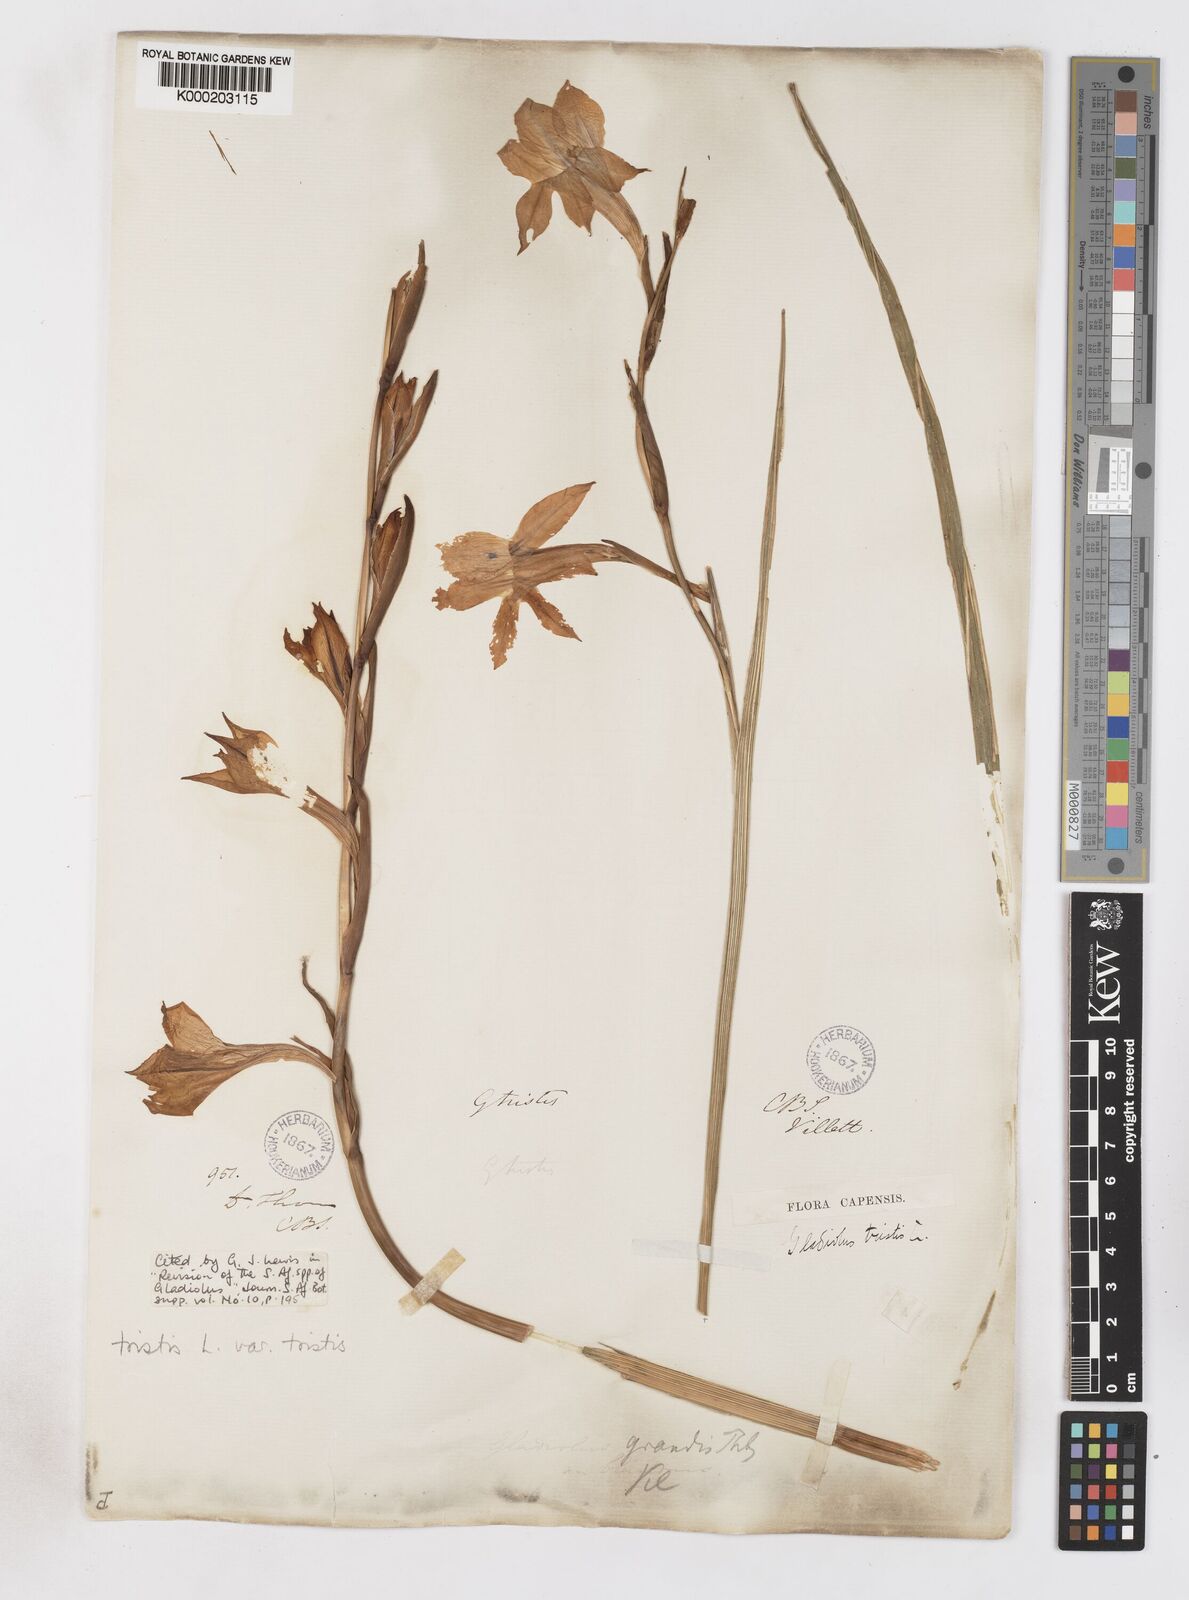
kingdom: Plantae
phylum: Tracheophyta
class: Liliopsida
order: Asparagales
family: Iridaceae
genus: Gladiolus
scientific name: Gladiolus tristis
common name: Ever-flowering gladiolus
